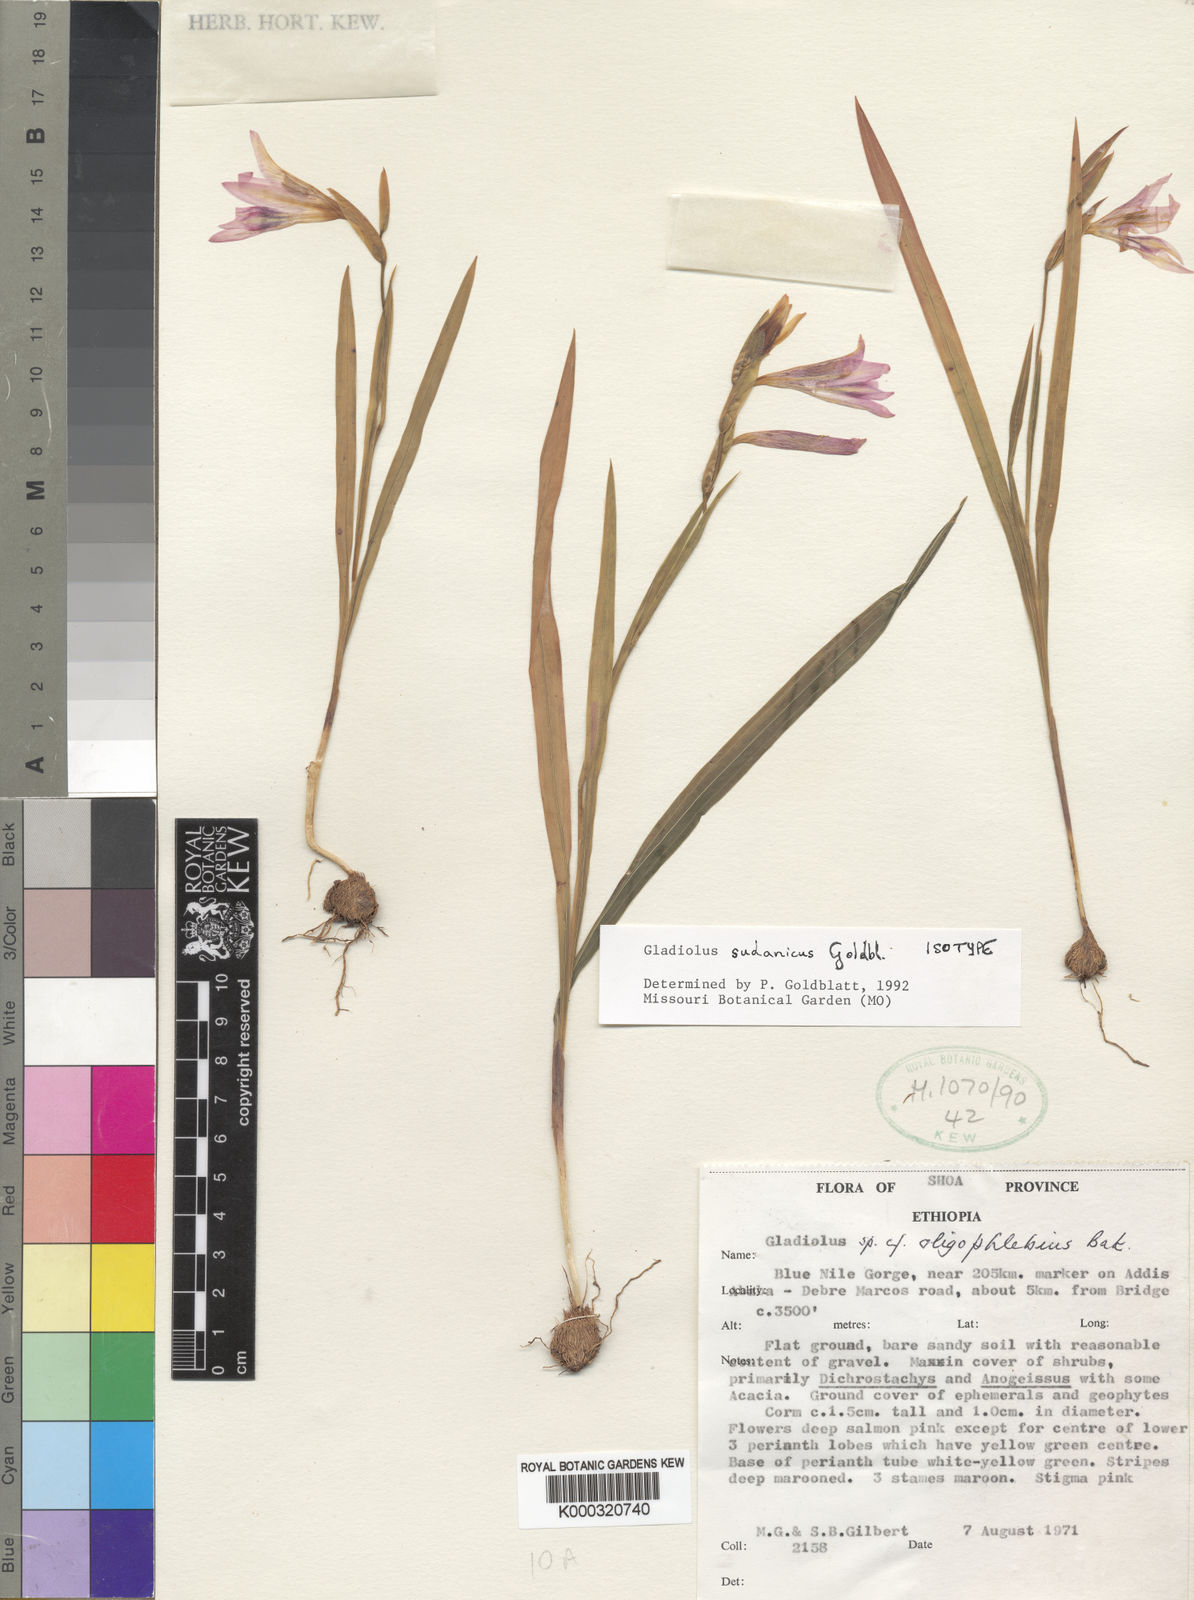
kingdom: Plantae
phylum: Tracheophyta
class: Liliopsida
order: Asparagales
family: Iridaceae
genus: Gladiolus
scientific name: Gladiolus sudanicus
